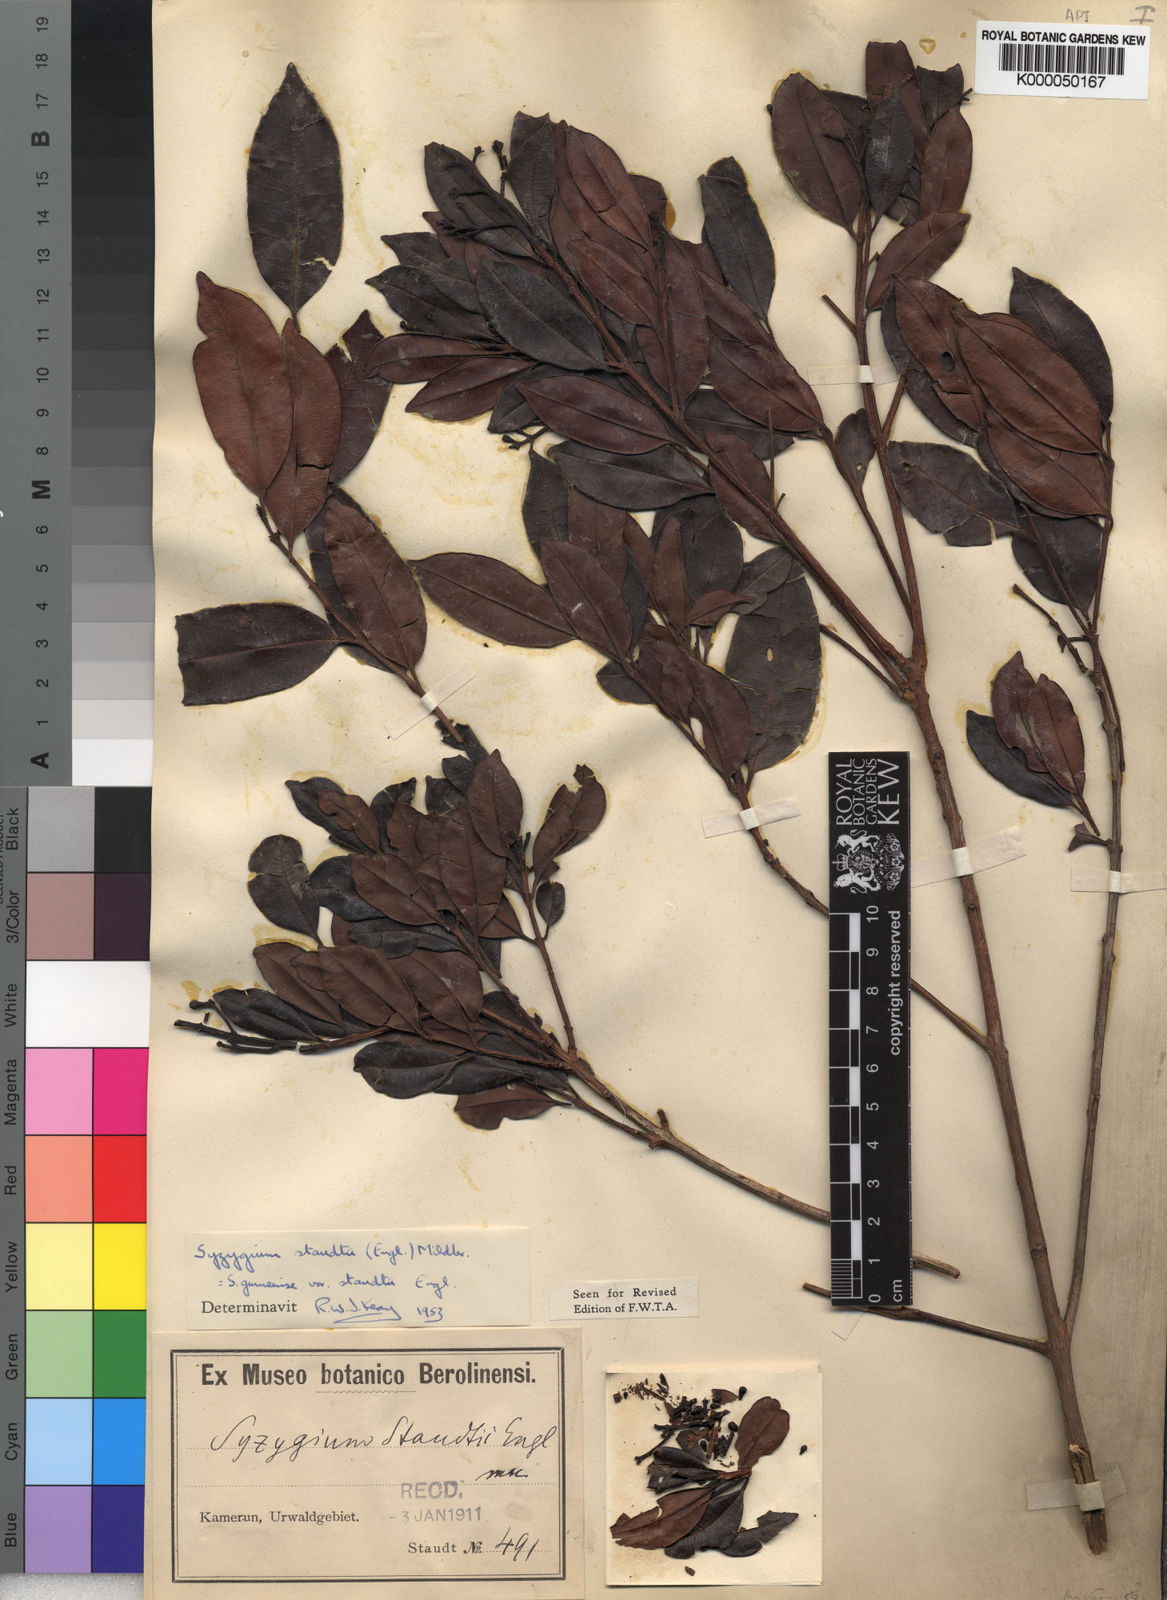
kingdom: Plantae
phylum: Tracheophyta
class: Magnoliopsida
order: Myrtales
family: Myrtaceae
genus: Syzygium
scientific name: Syzygium staudtii
